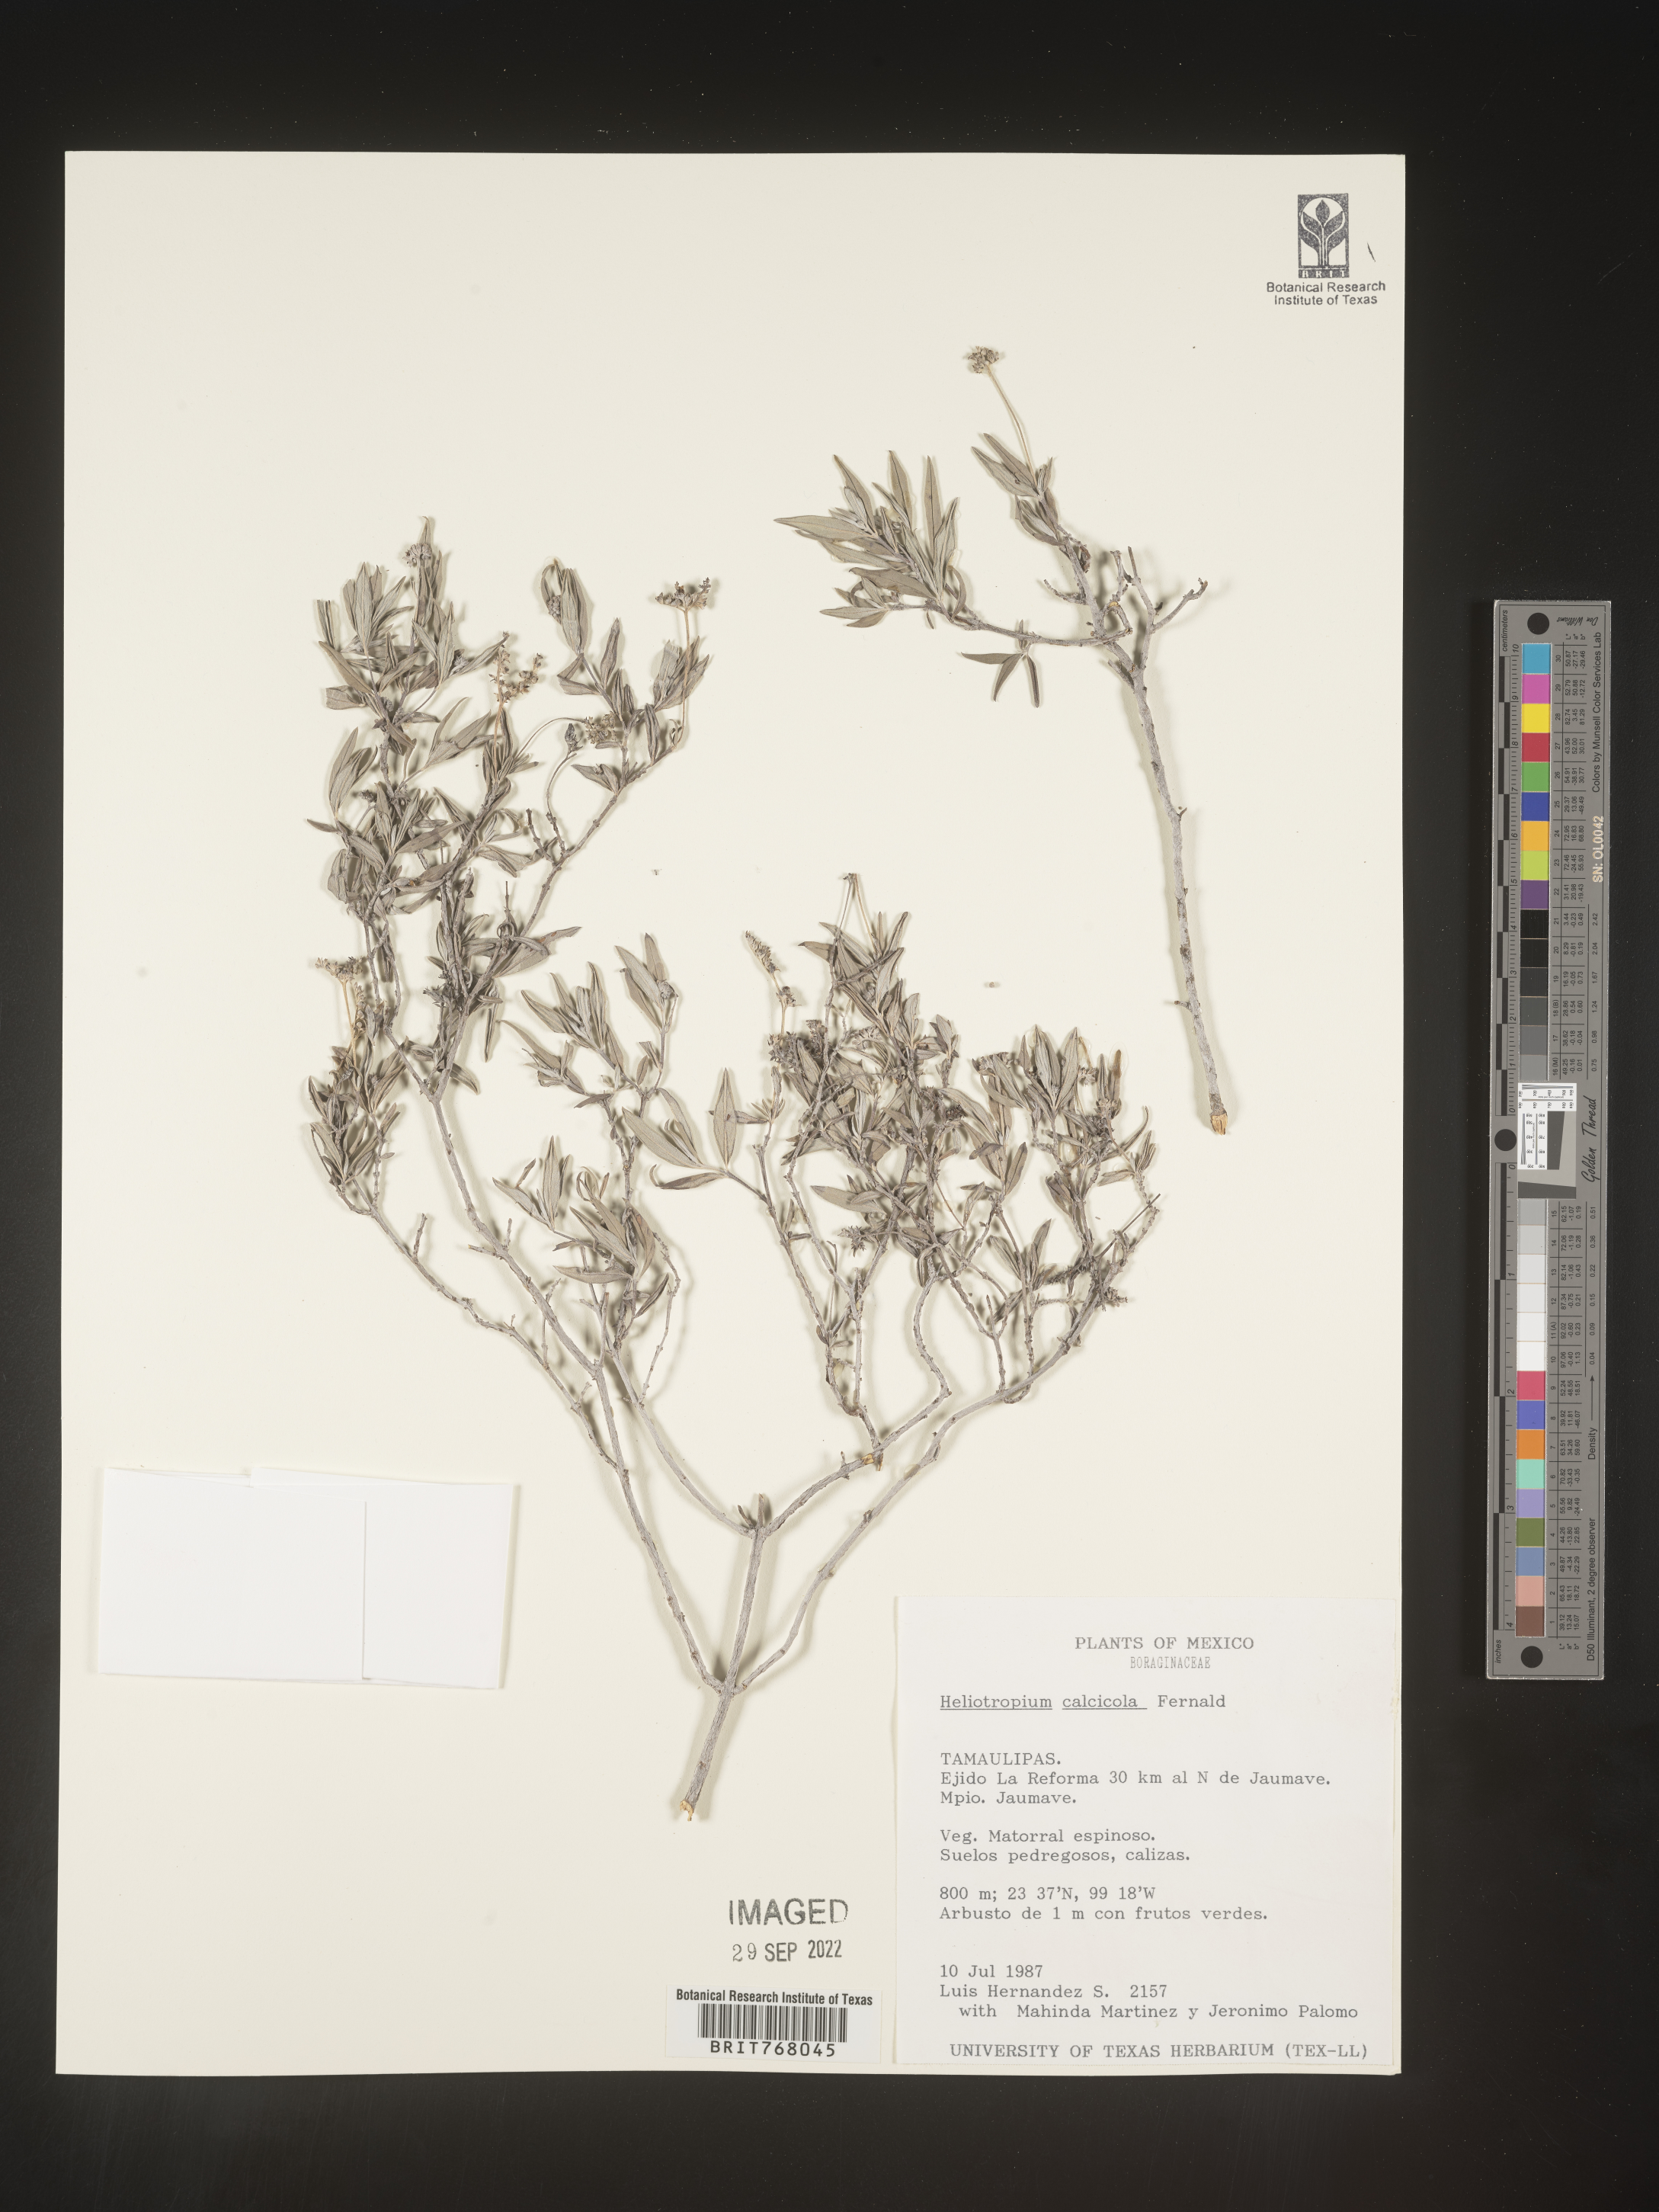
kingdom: Plantae
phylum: Tracheophyta
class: Magnoliopsida
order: Boraginales
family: Heliotropiaceae
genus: Heliotropium
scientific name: Heliotropium
